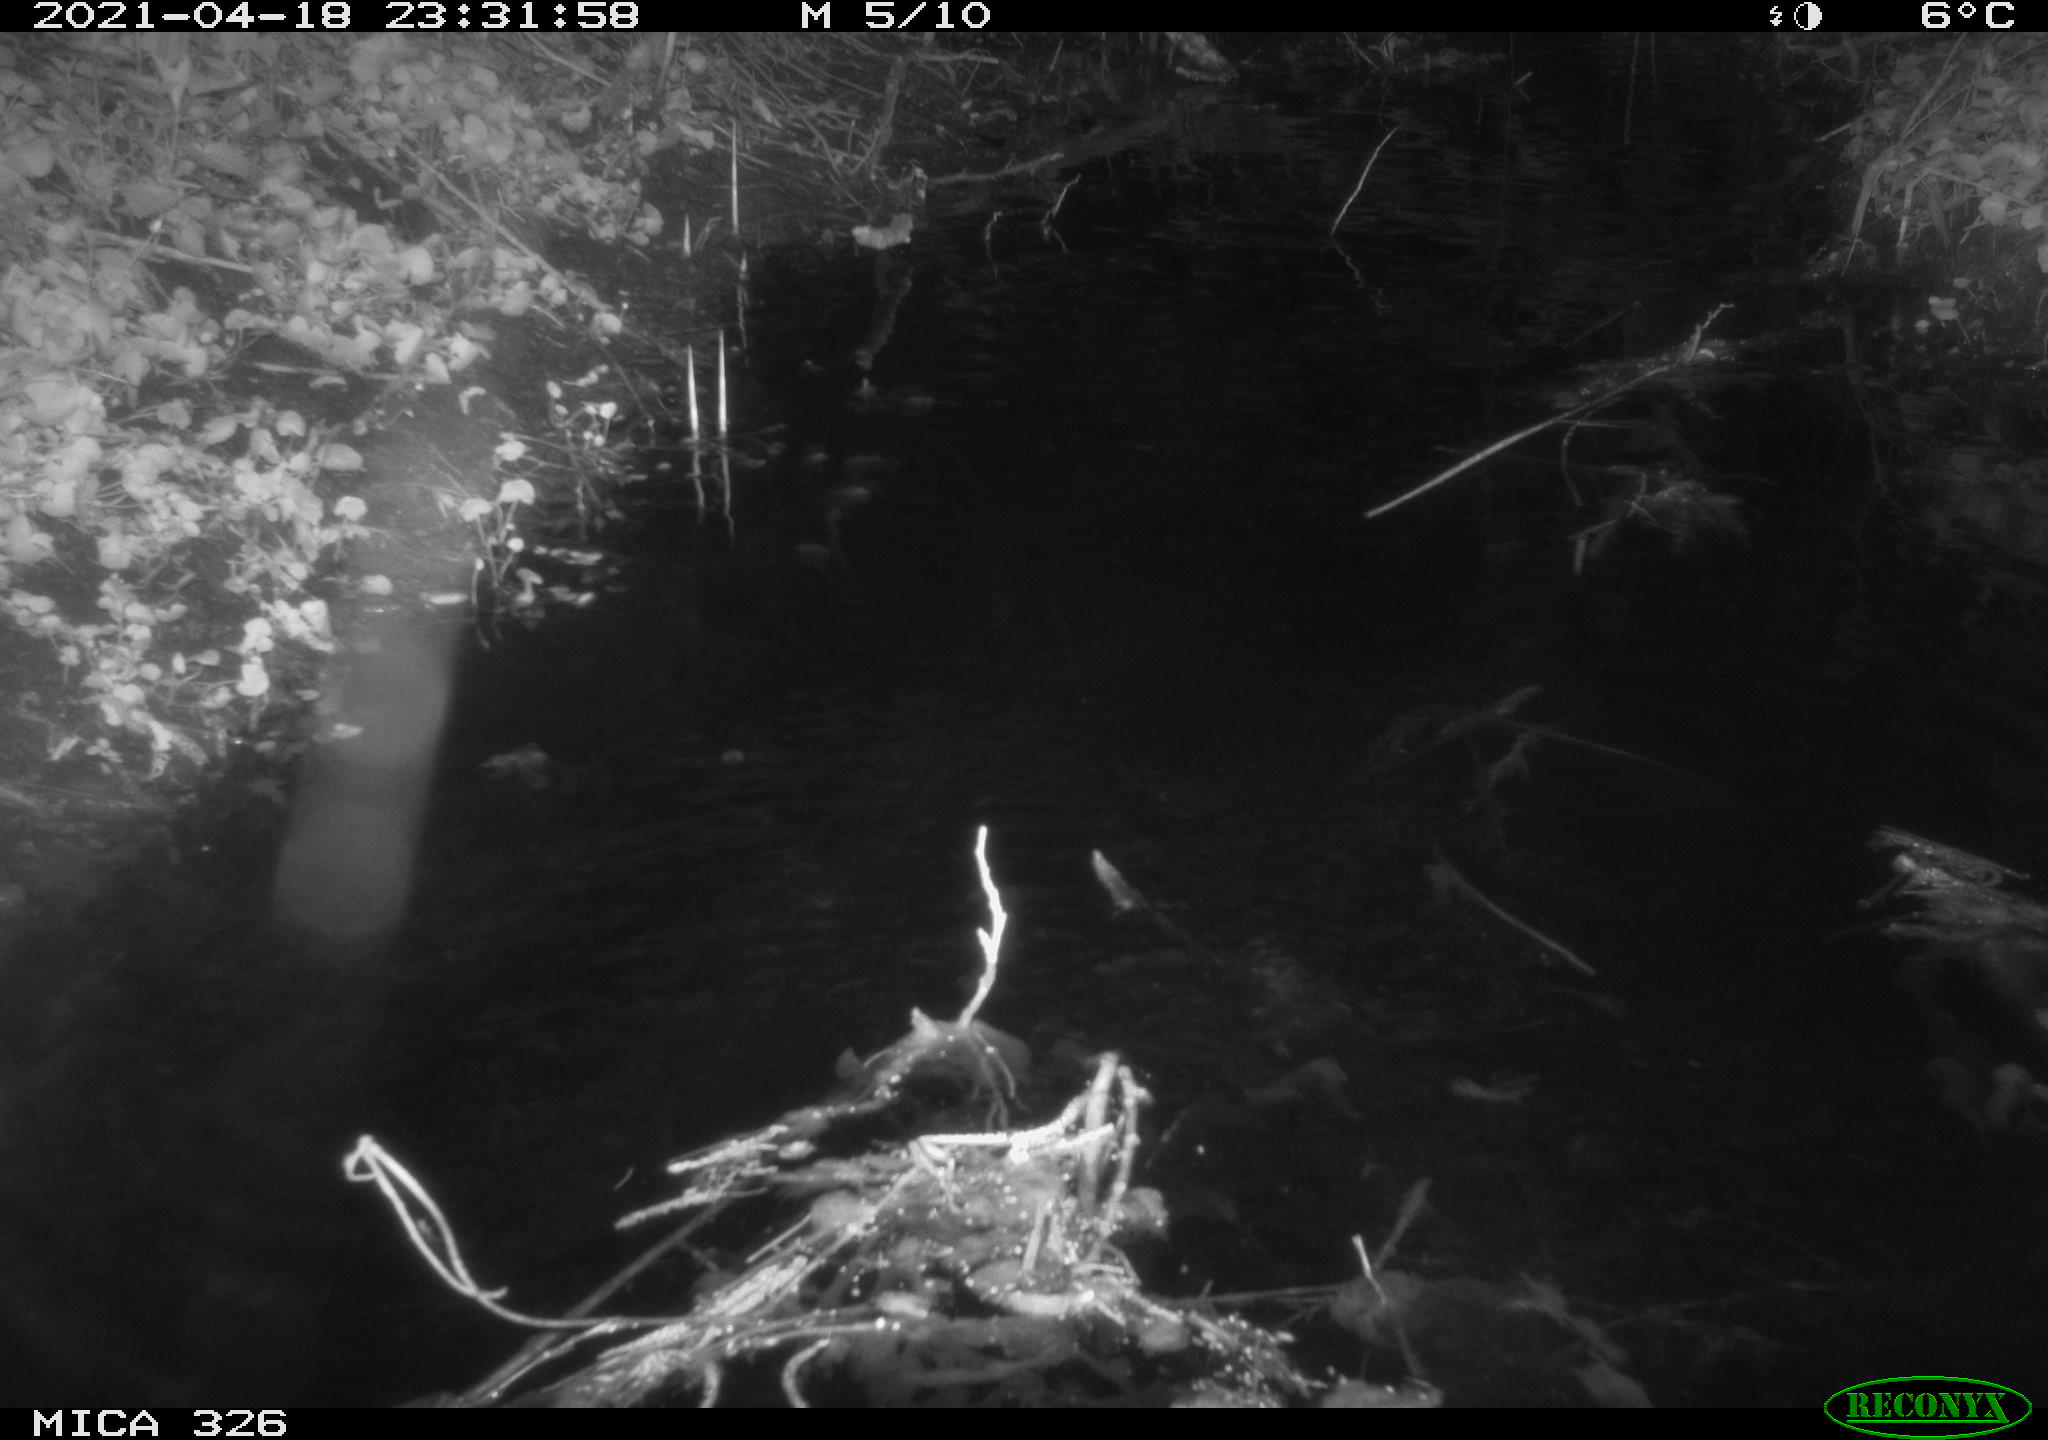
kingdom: Animalia
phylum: Chordata
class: Mammalia
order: Rodentia
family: Cricetidae
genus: Ondatra
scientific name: Ondatra zibethicus
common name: Muskrat
